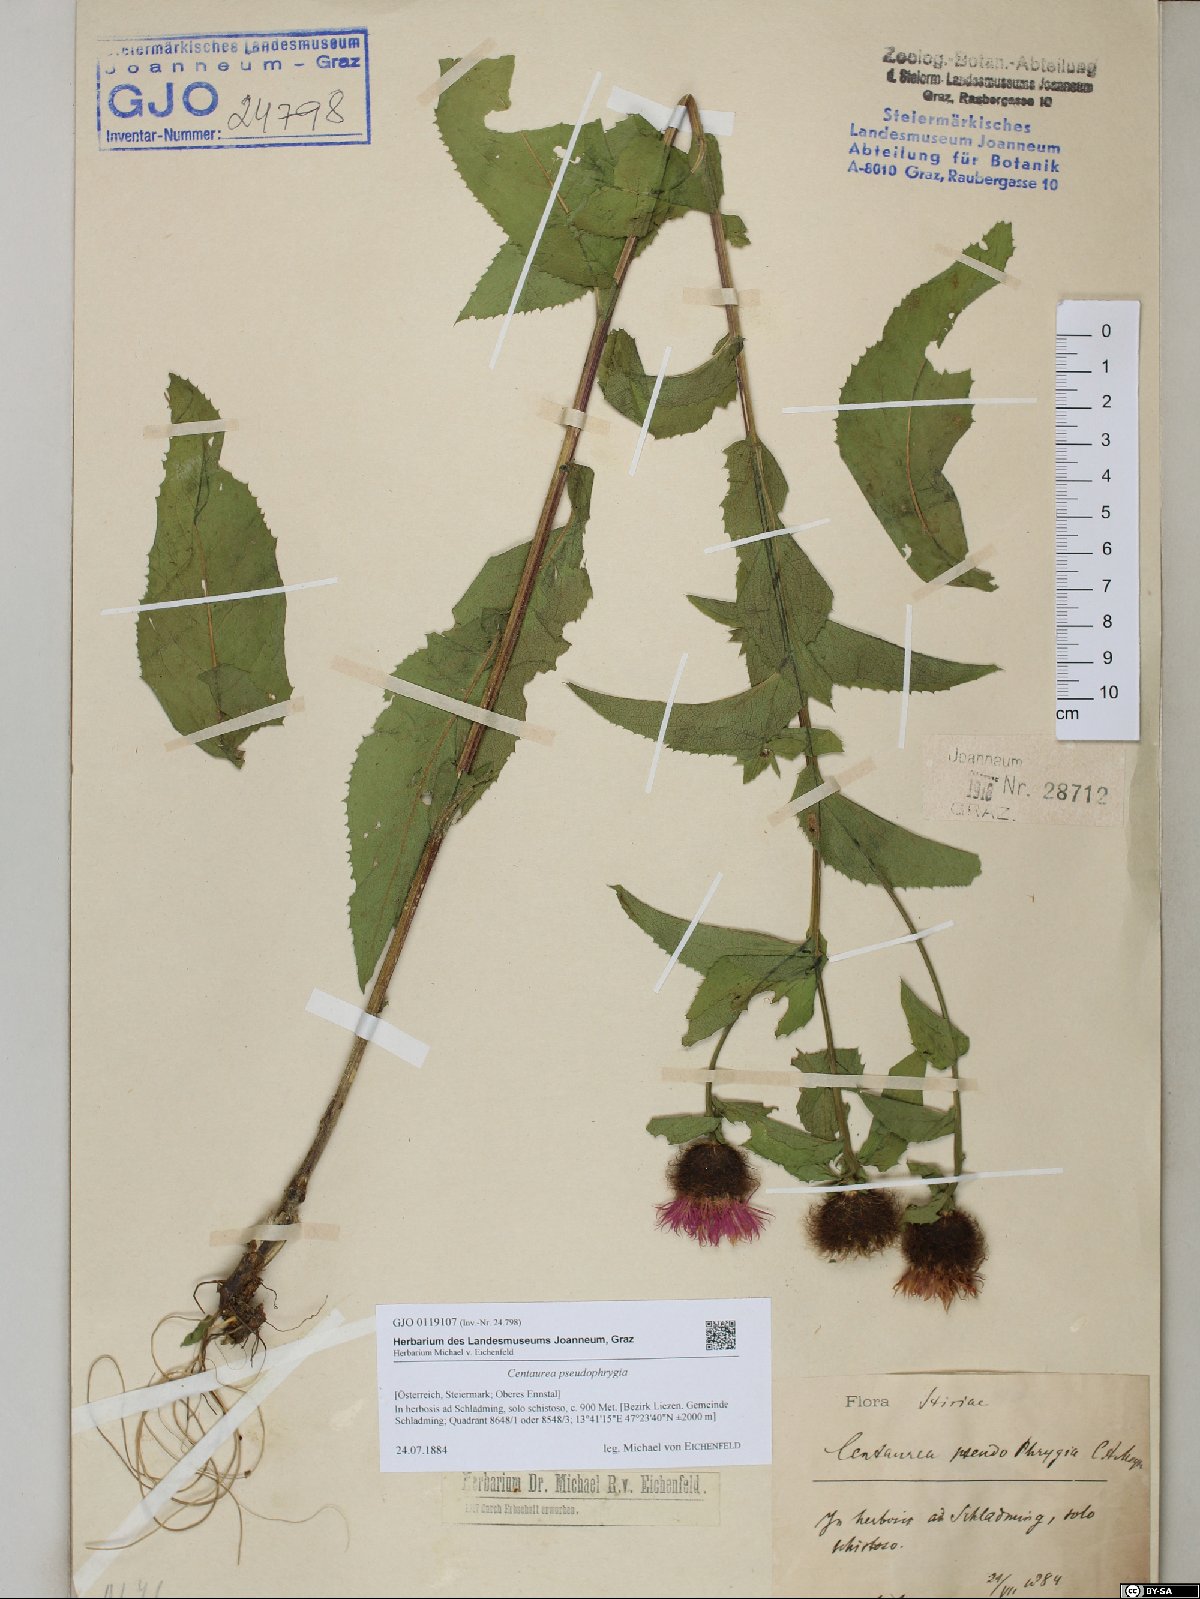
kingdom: Plantae
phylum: Tracheophyta
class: Magnoliopsida
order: Asterales
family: Asteraceae
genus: Centaurea
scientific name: Centaurea pseudophrygia
